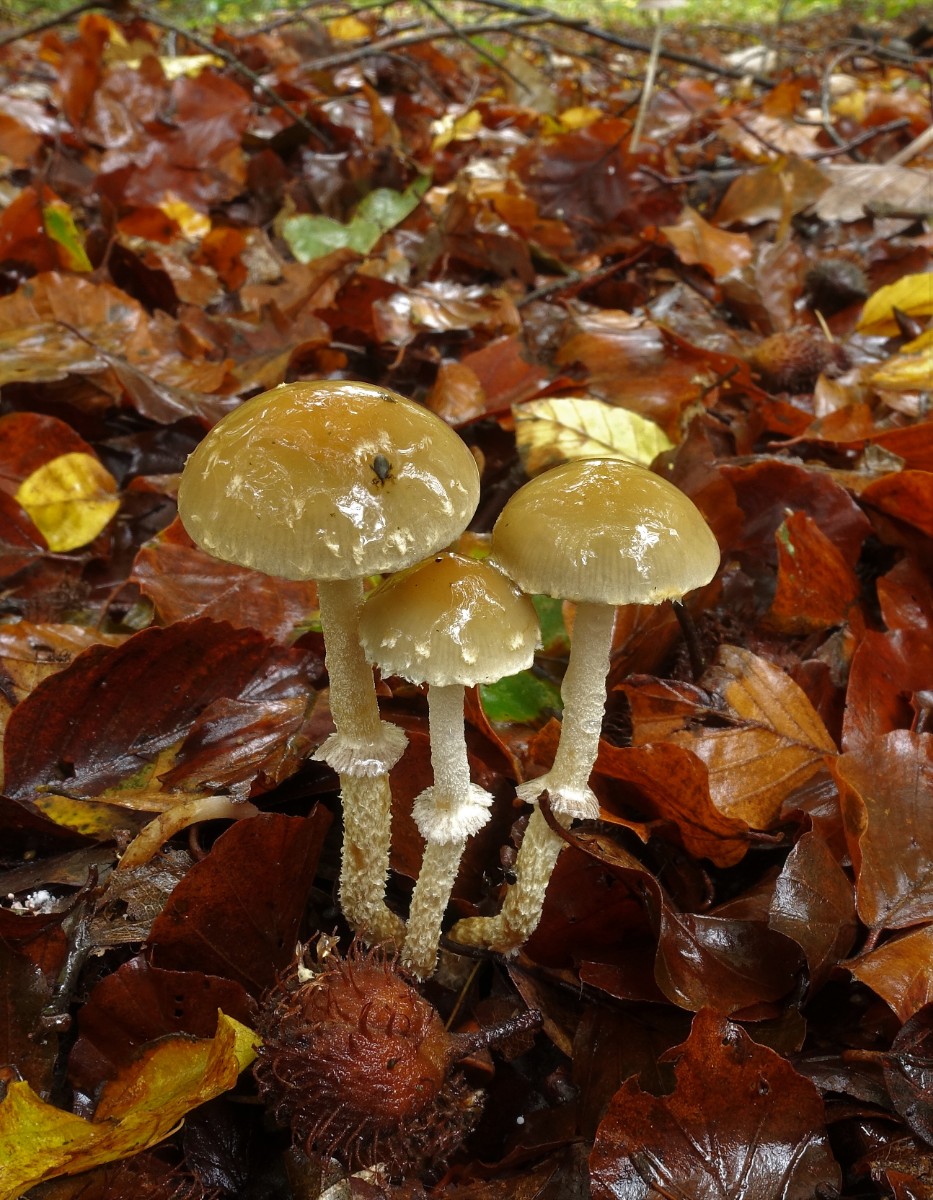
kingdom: Fungi
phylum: Basidiomycota
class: Agaricomycetes
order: Agaricales
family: Strophariaceae
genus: Leratiomyces
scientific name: Leratiomyces squamosus
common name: skællet bredblad
